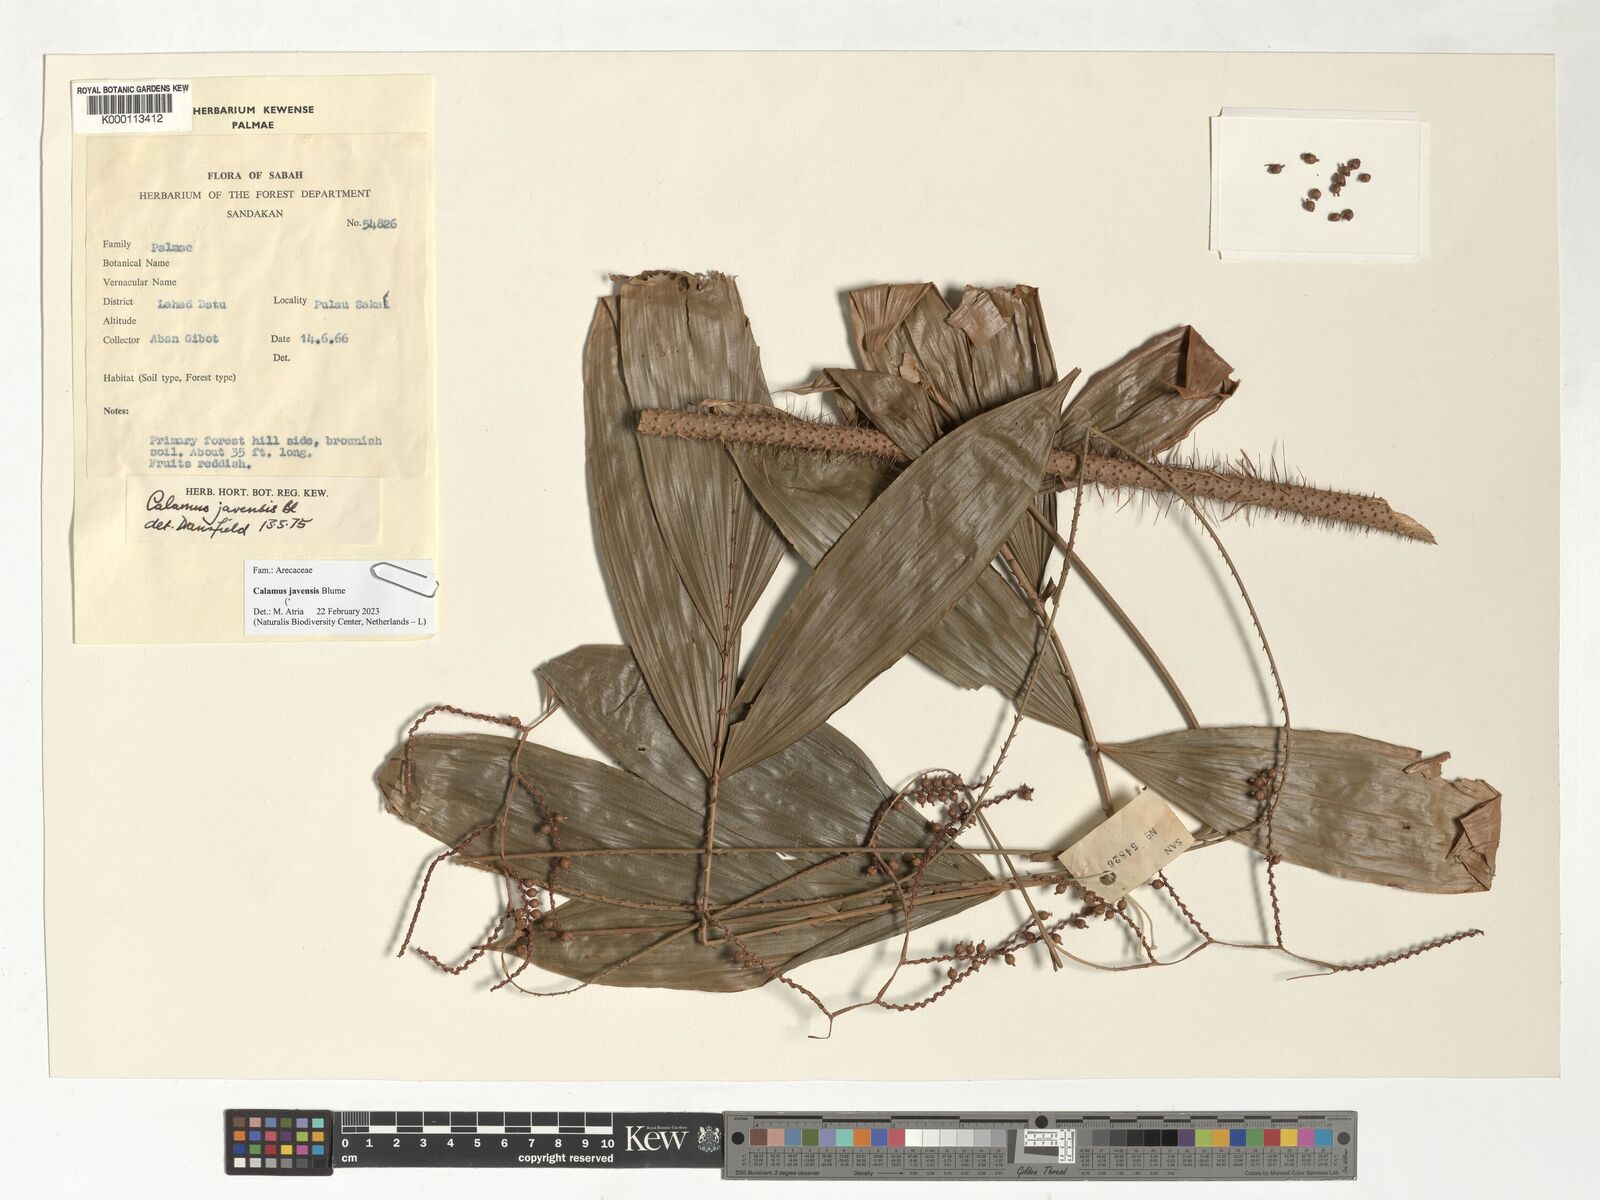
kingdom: Plantae
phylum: Tracheophyta
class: Liliopsida
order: Arecales
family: Arecaceae
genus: Calamus
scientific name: Calamus javensis
